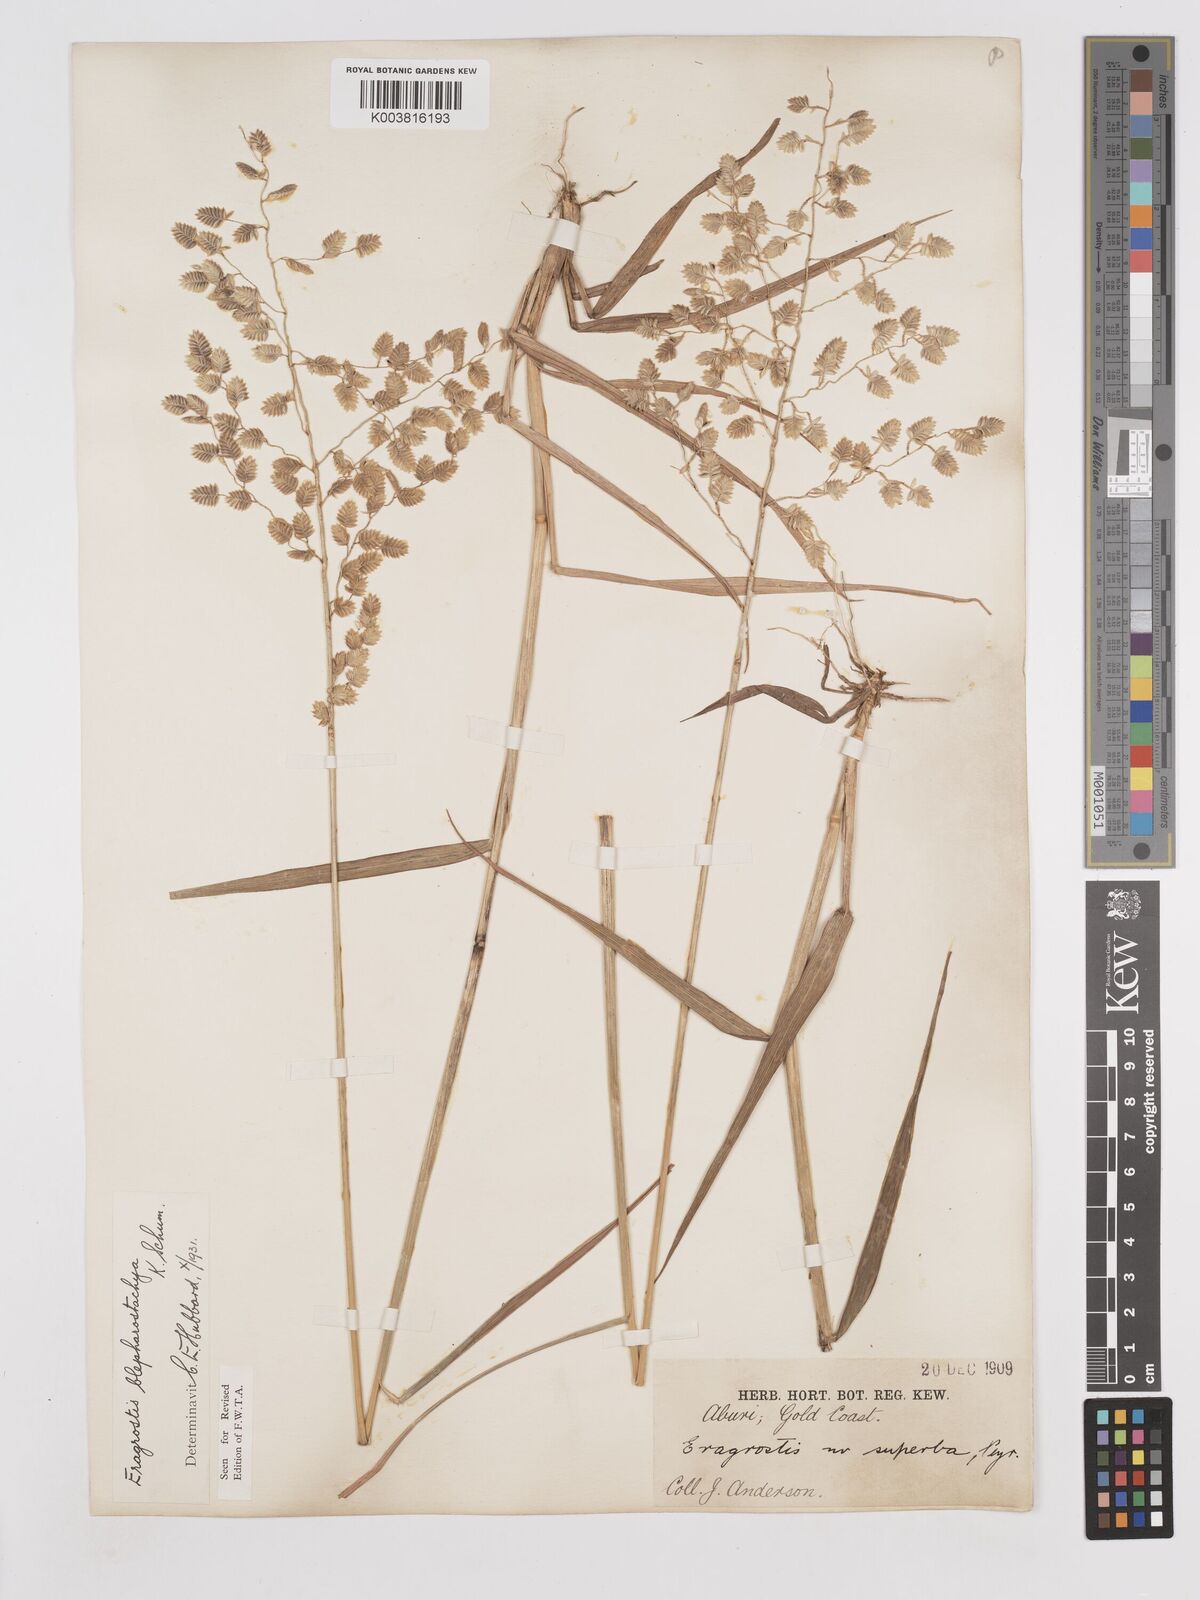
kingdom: Plantae
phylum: Tracheophyta
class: Liliopsida
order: Poales
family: Poaceae
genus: Eragrostis
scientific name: Eragrostis blepharostachya
